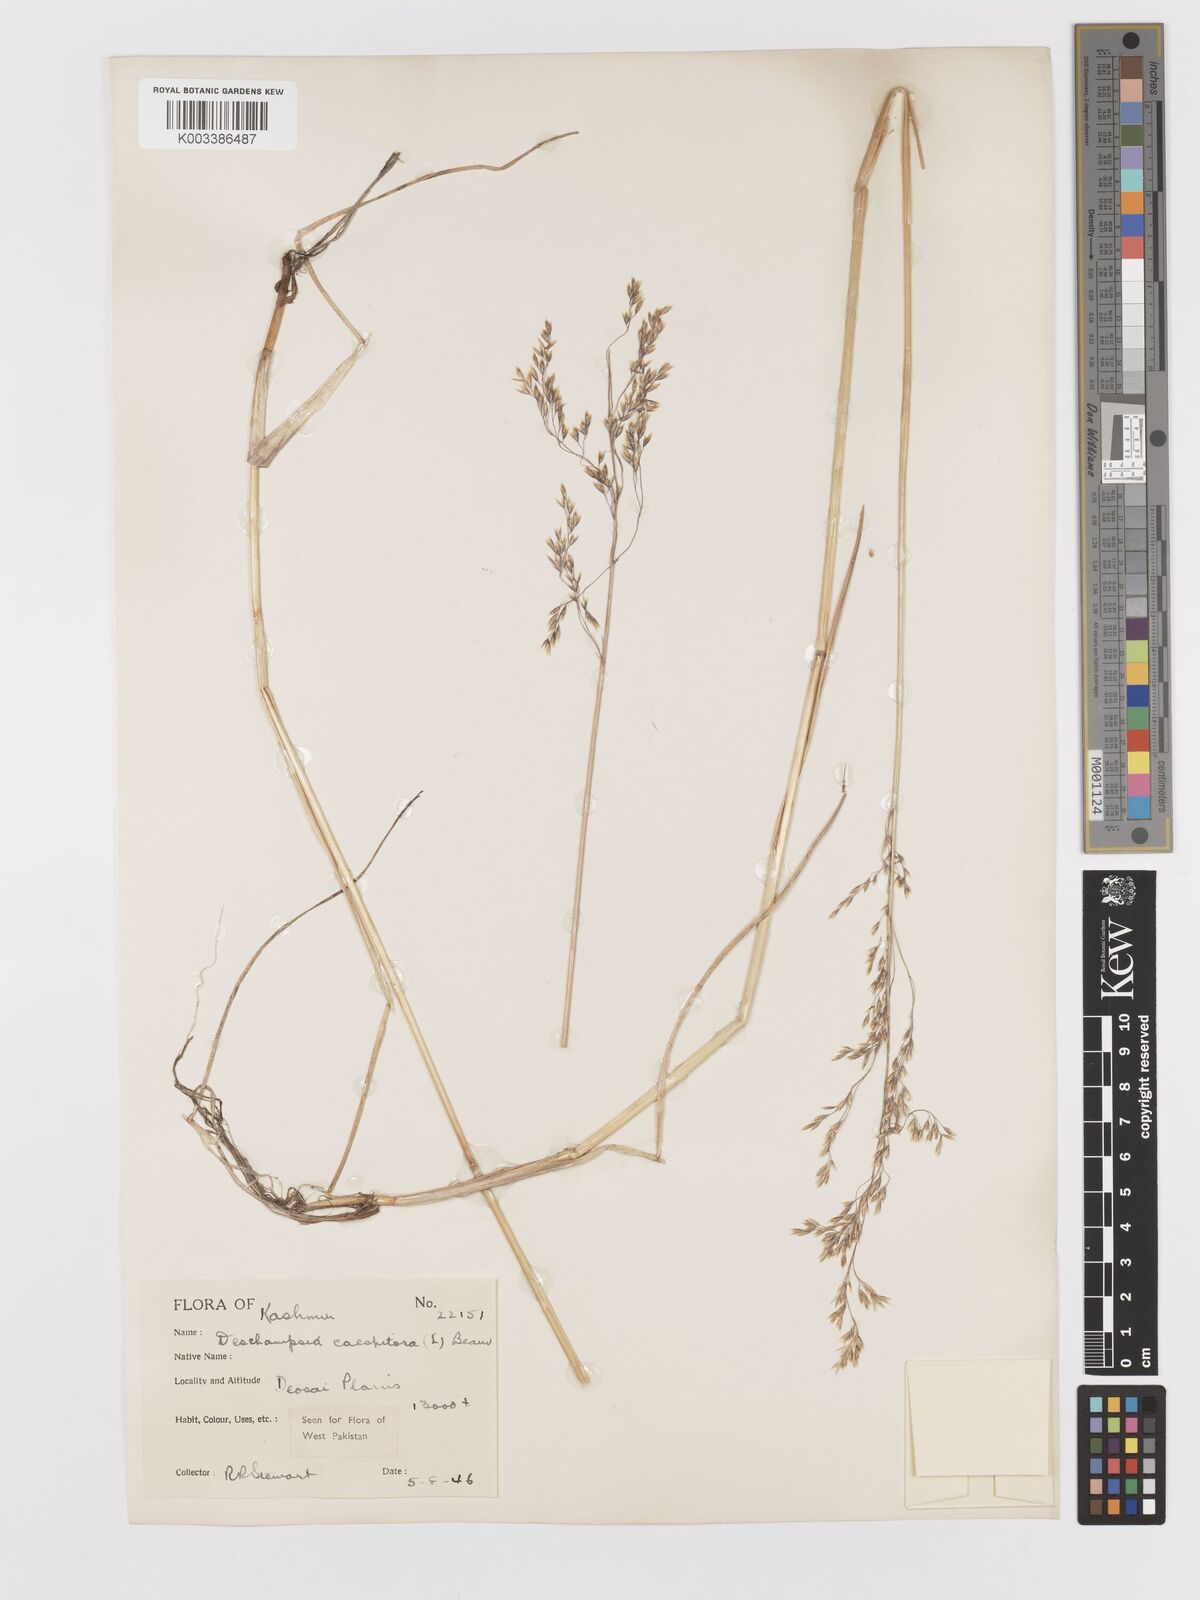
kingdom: Plantae
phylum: Tracheophyta
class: Liliopsida
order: Poales
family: Poaceae
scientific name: Poaceae
